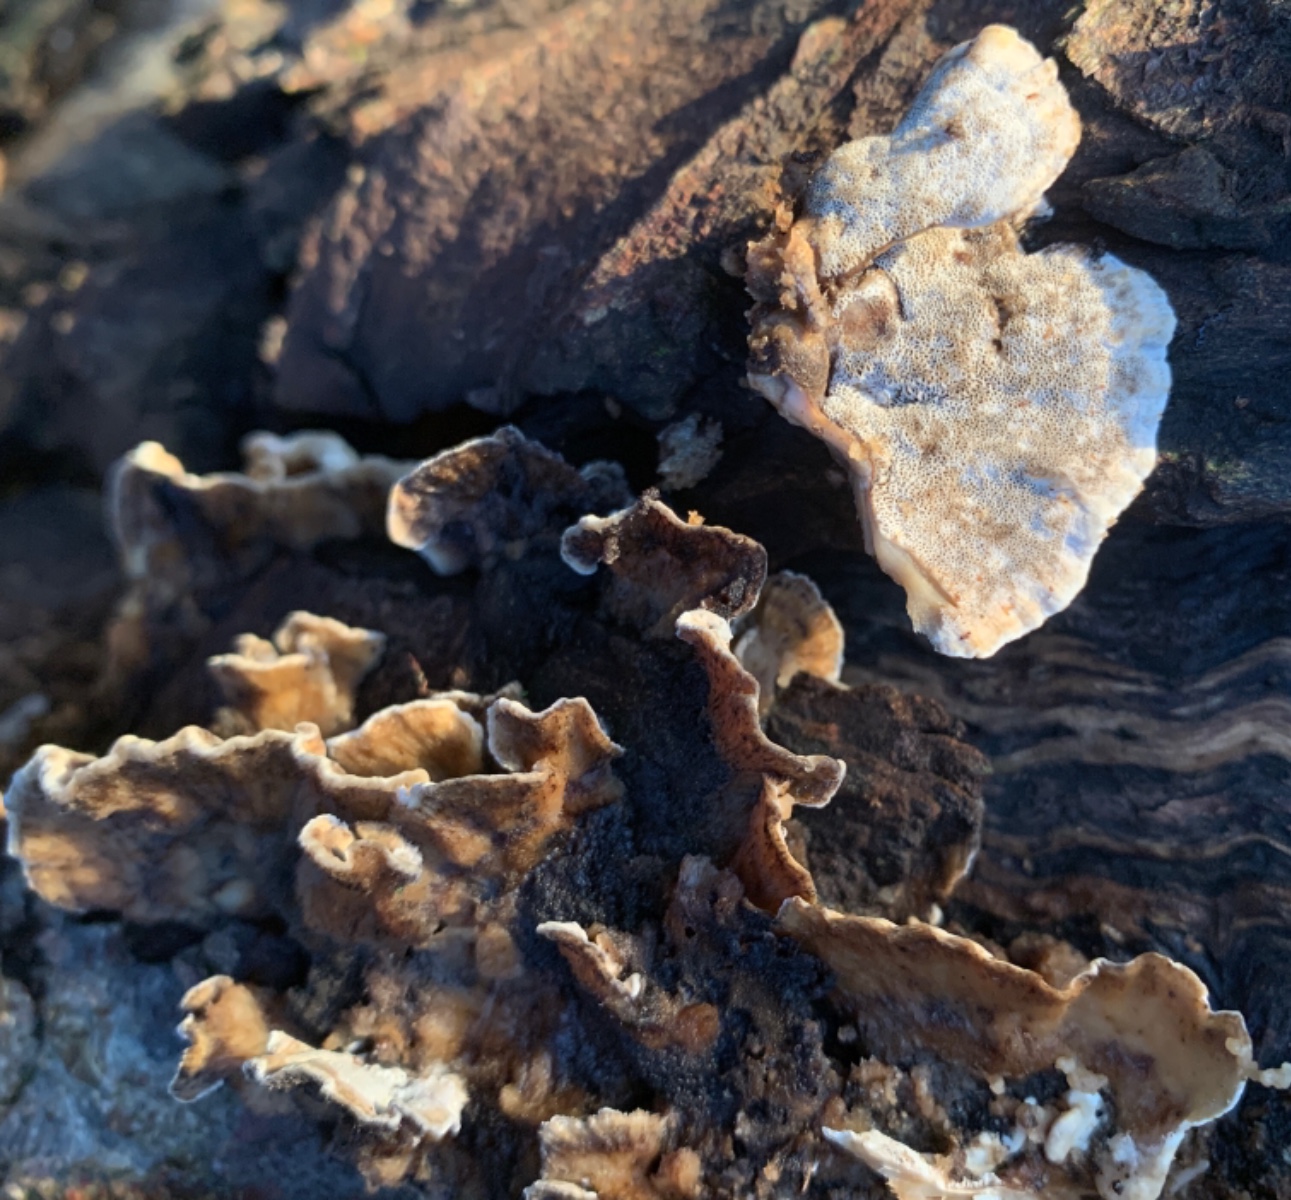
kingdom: Fungi
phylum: Basidiomycota
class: Agaricomycetes
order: Polyporales
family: Phanerochaetaceae
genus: Bjerkandera
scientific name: Bjerkandera adusta
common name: sveden sodporesvamp
